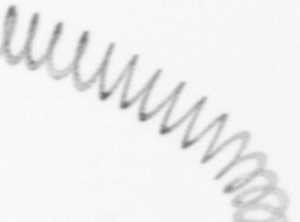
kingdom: Chromista
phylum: Ochrophyta
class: Bacillariophyceae
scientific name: Bacillariophyceae
